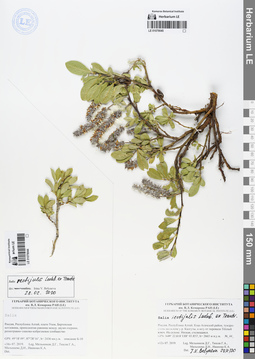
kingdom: Plantae
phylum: Tracheophyta
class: Magnoliopsida
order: Malpighiales
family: Salicaceae
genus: Salix
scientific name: Salix rectijulis
